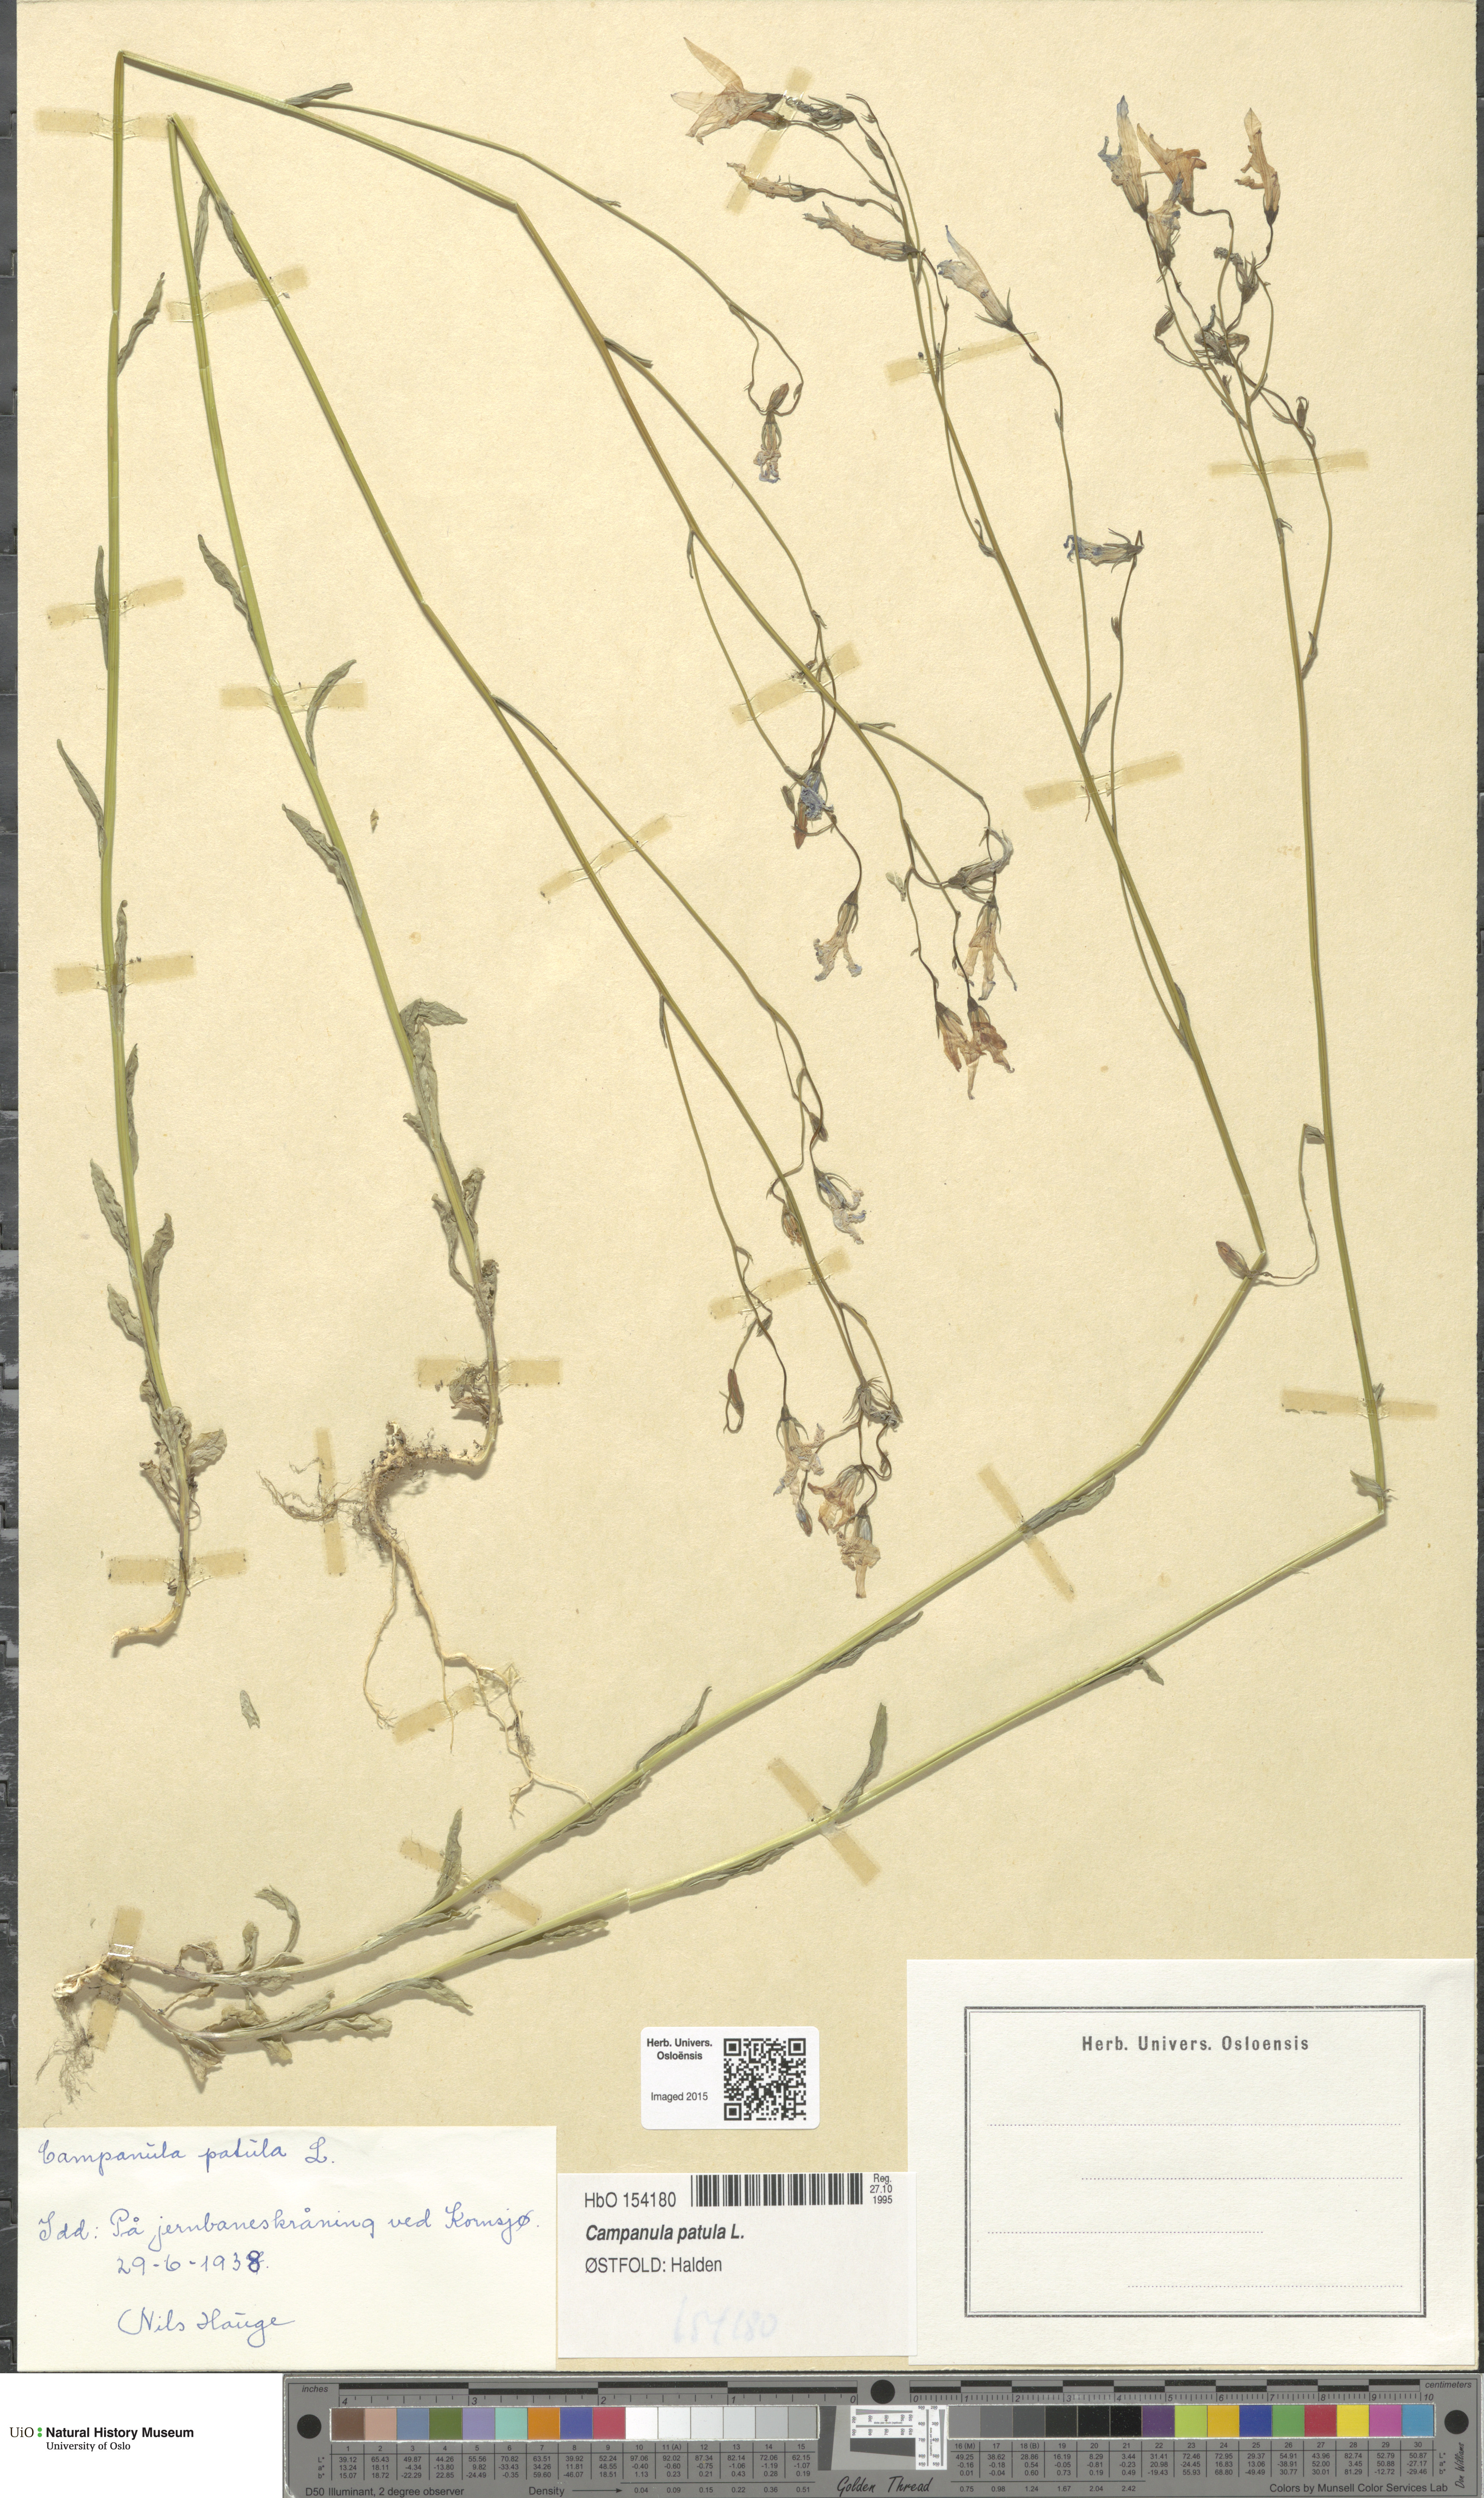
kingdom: Plantae
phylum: Tracheophyta
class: Magnoliopsida
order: Asterales
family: Campanulaceae
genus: Campanula
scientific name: Campanula patula
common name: Spreading bellflower
